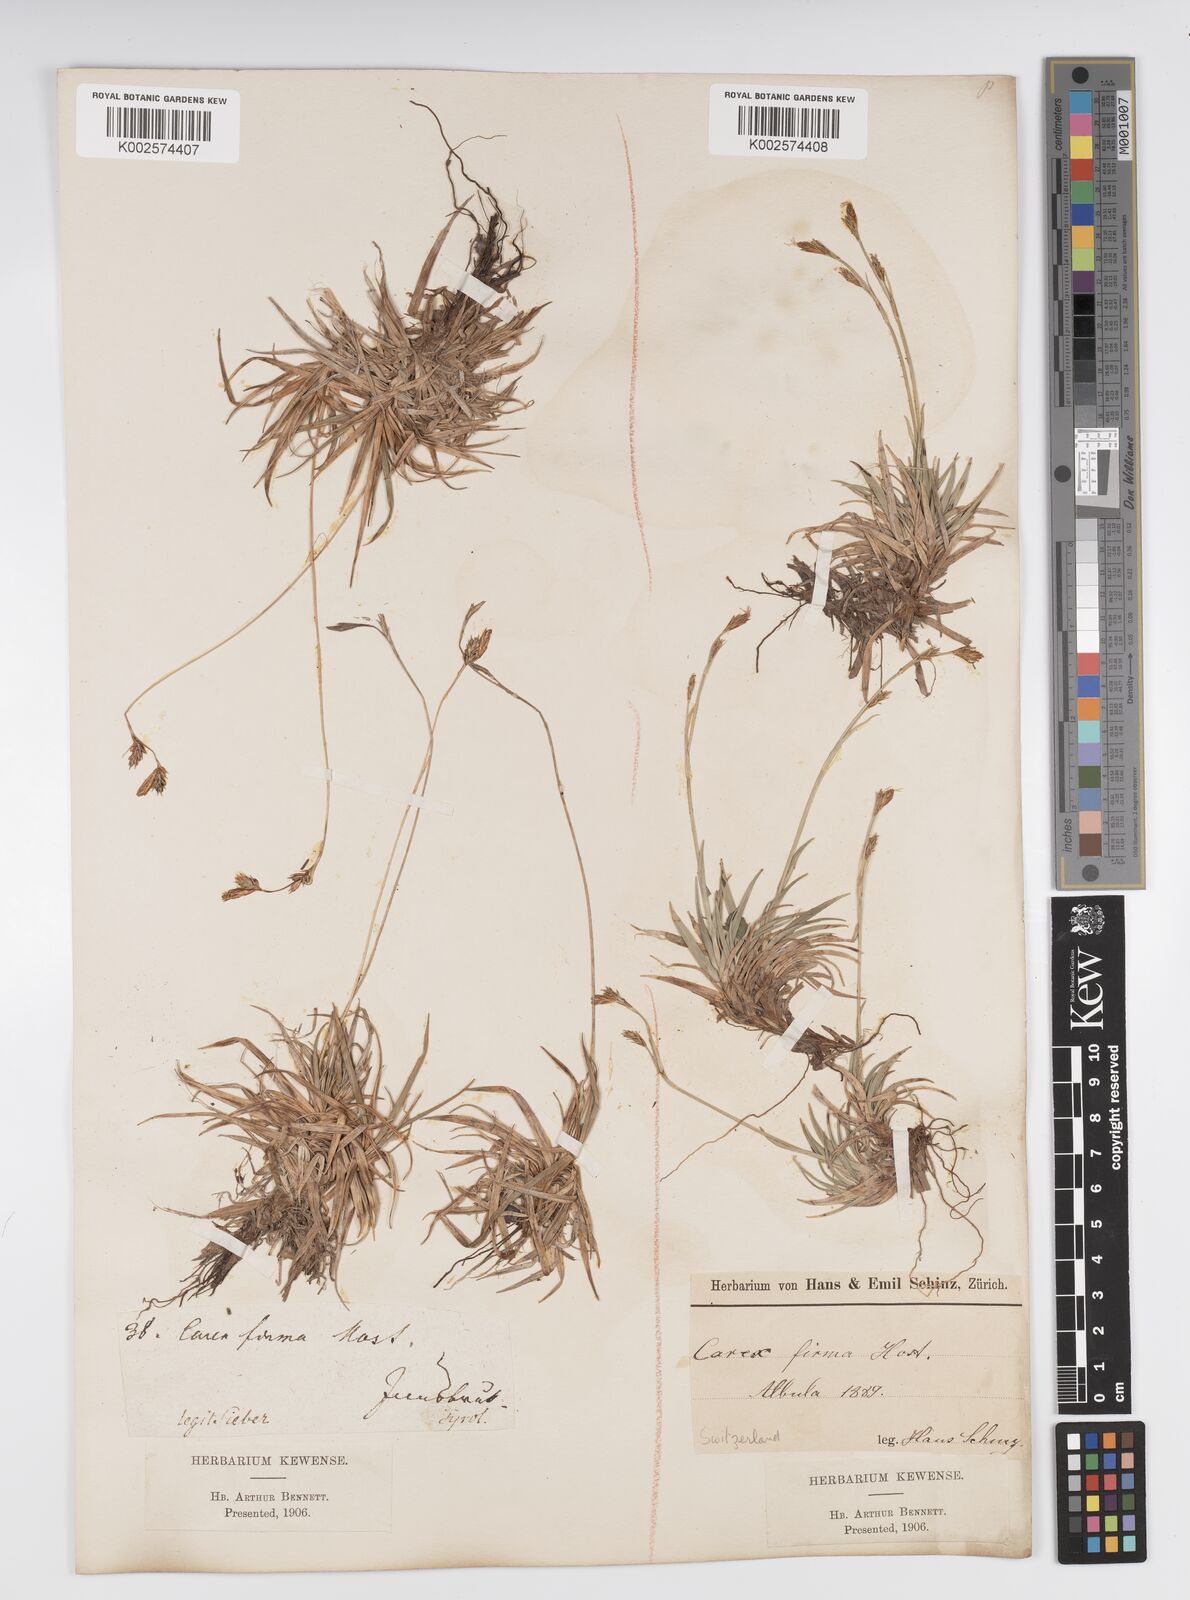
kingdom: Plantae
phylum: Tracheophyta
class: Liliopsida
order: Poales
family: Cyperaceae
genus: Carex
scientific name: Carex firma
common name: Dwarf pillow sedge
